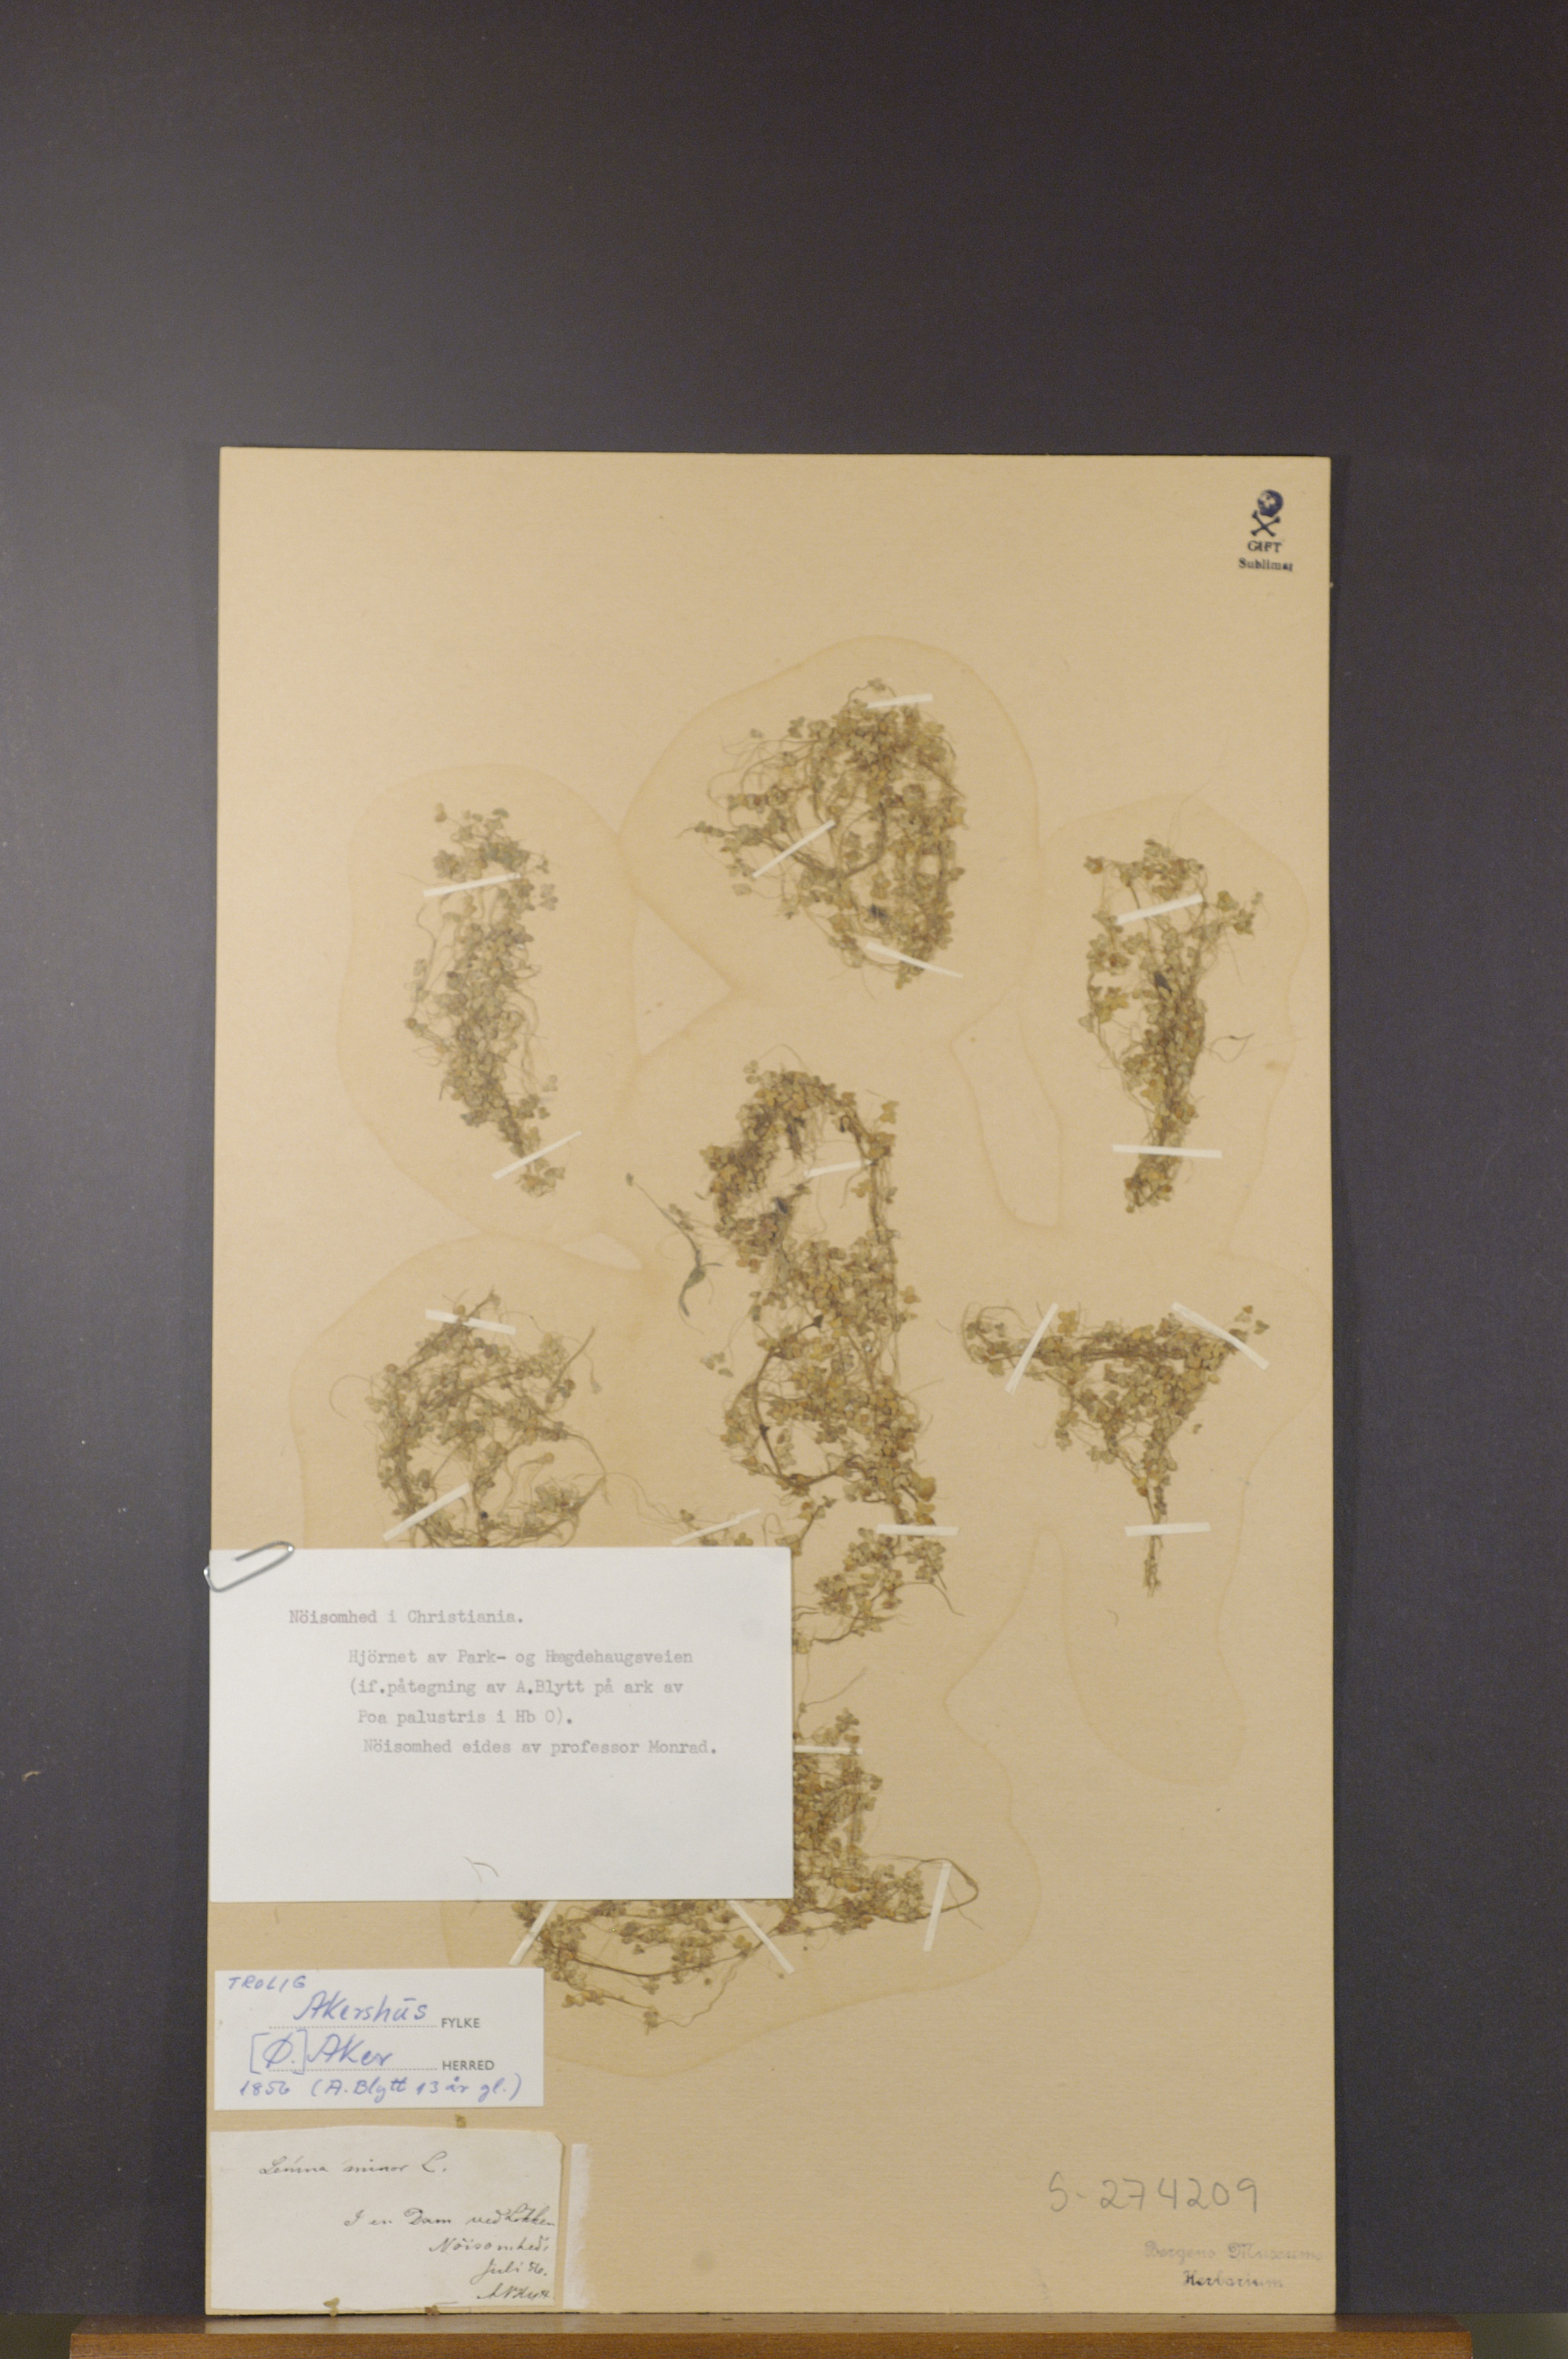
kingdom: Plantae
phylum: Tracheophyta
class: Liliopsida
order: Alismatales
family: Araceae
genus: Lemna
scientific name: Lemna minor
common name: Common duckweed
